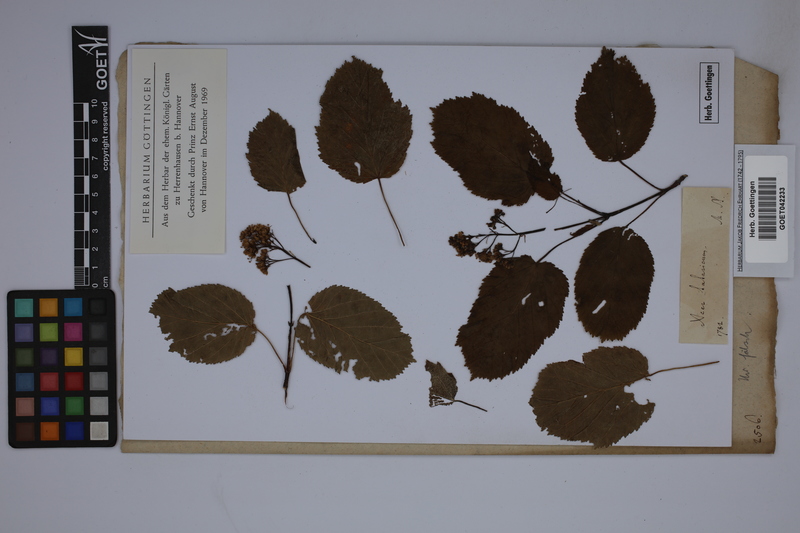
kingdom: Plantae
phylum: Tracheophyta
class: Magnoliopsida
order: Sapindales
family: Sapindaceae
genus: Acer
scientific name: Acer tataricum
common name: Tartar maple
